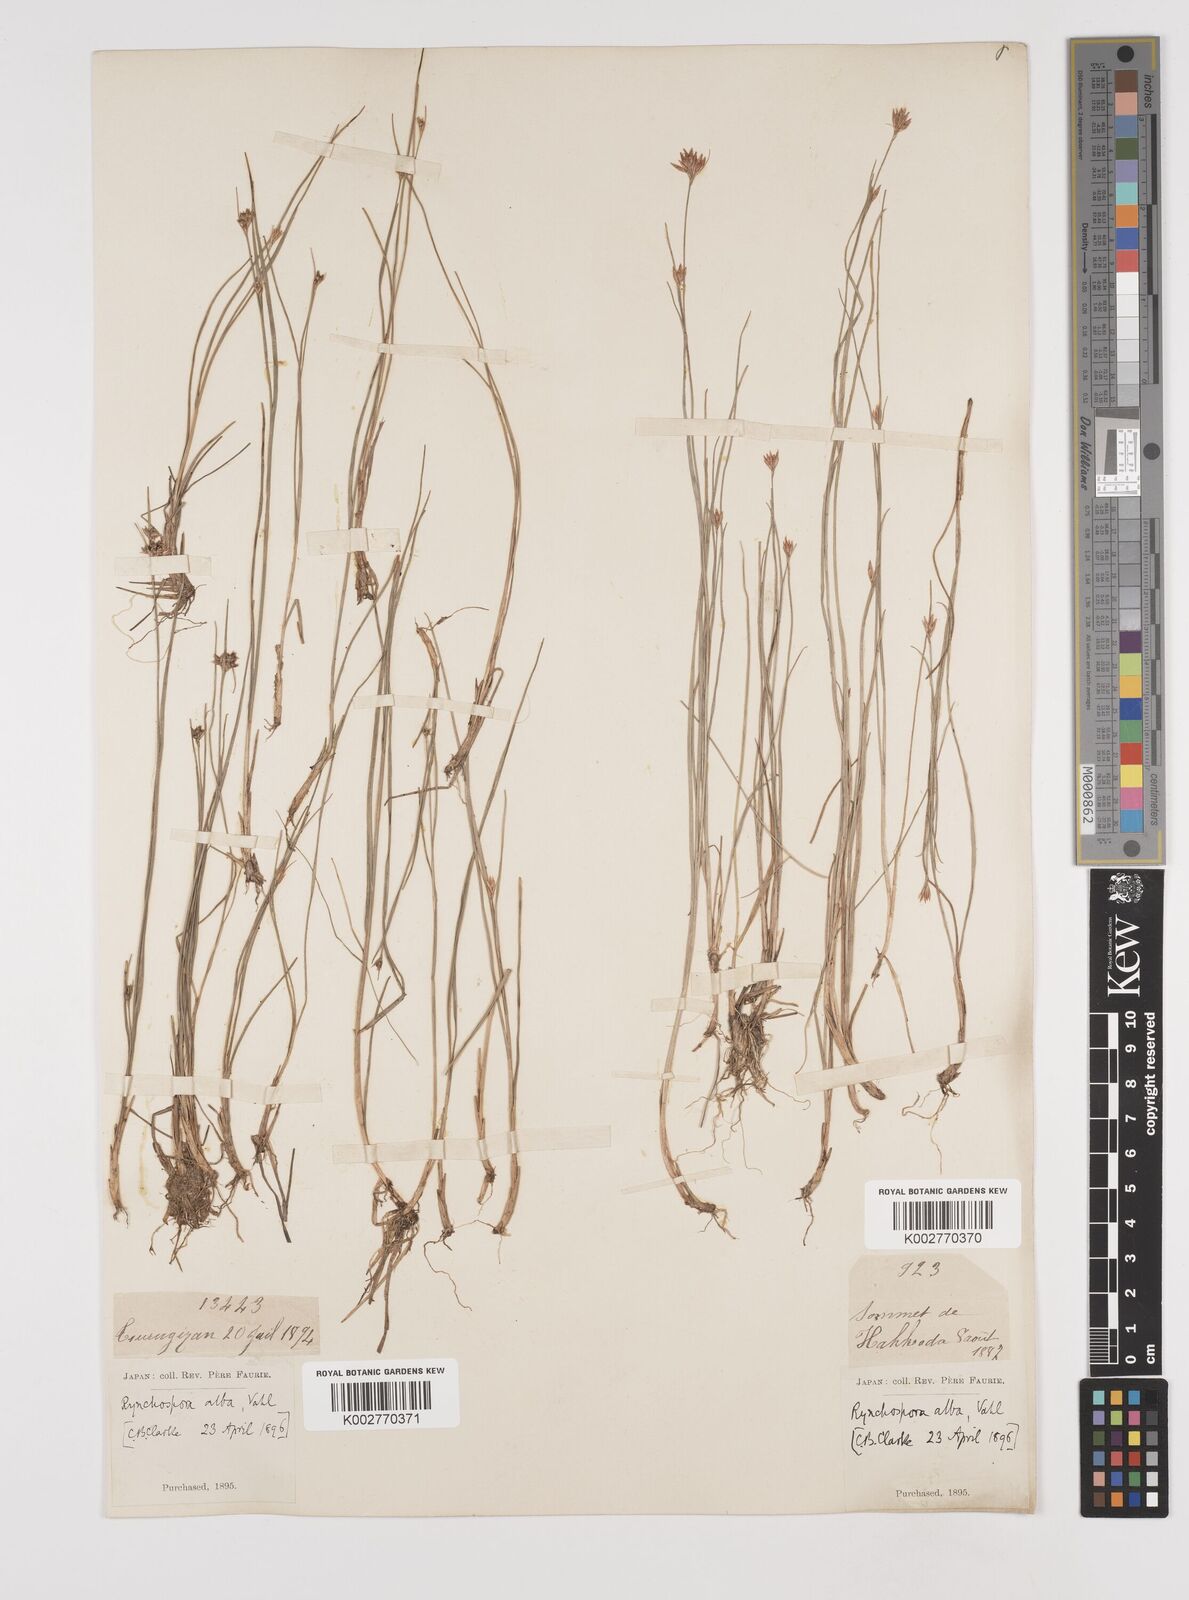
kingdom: Plantae
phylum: Tracheophyta
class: Liliopsida
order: Poales
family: Cyperaceae
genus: Rhynchospora
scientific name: Rhynchospora alba
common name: White beak-sedge
